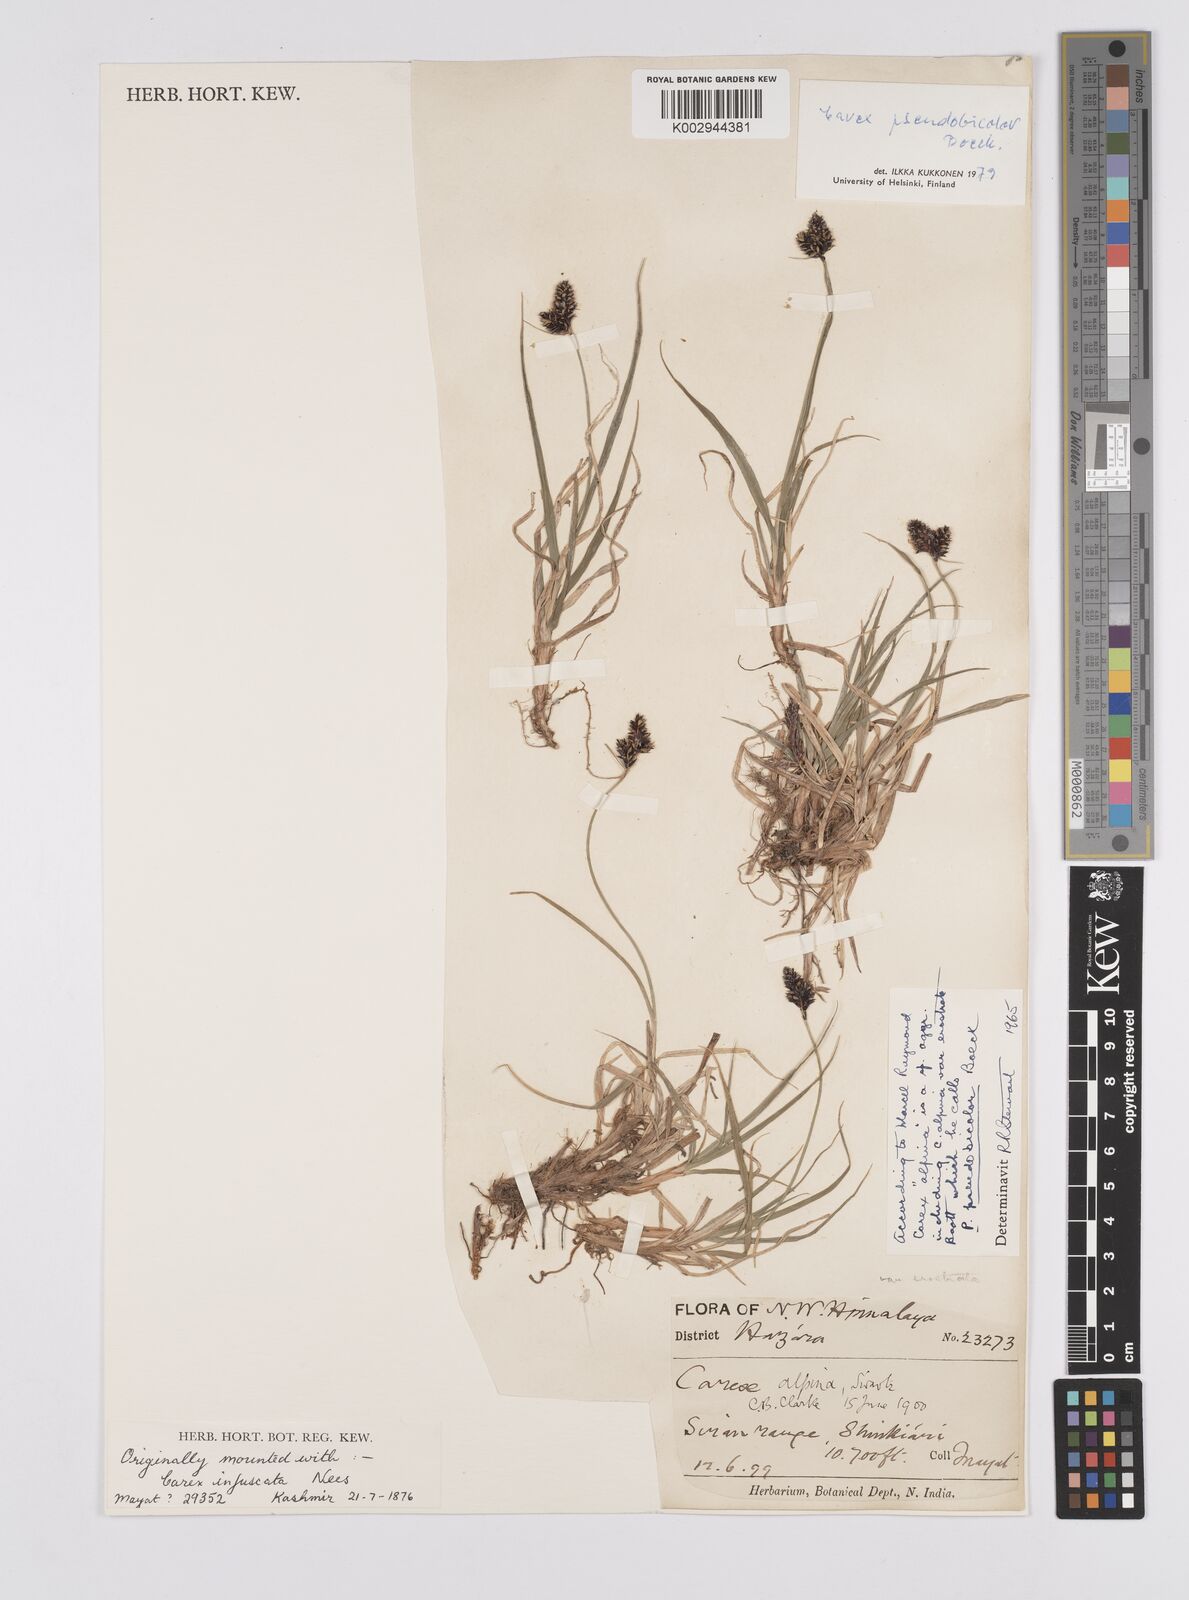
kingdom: Plantae
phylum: Tracheophyta
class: Liliopsida
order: Poales
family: Cyperaceae
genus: Carex
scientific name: Carex norvegica
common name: Close-headed alpine-sedge
